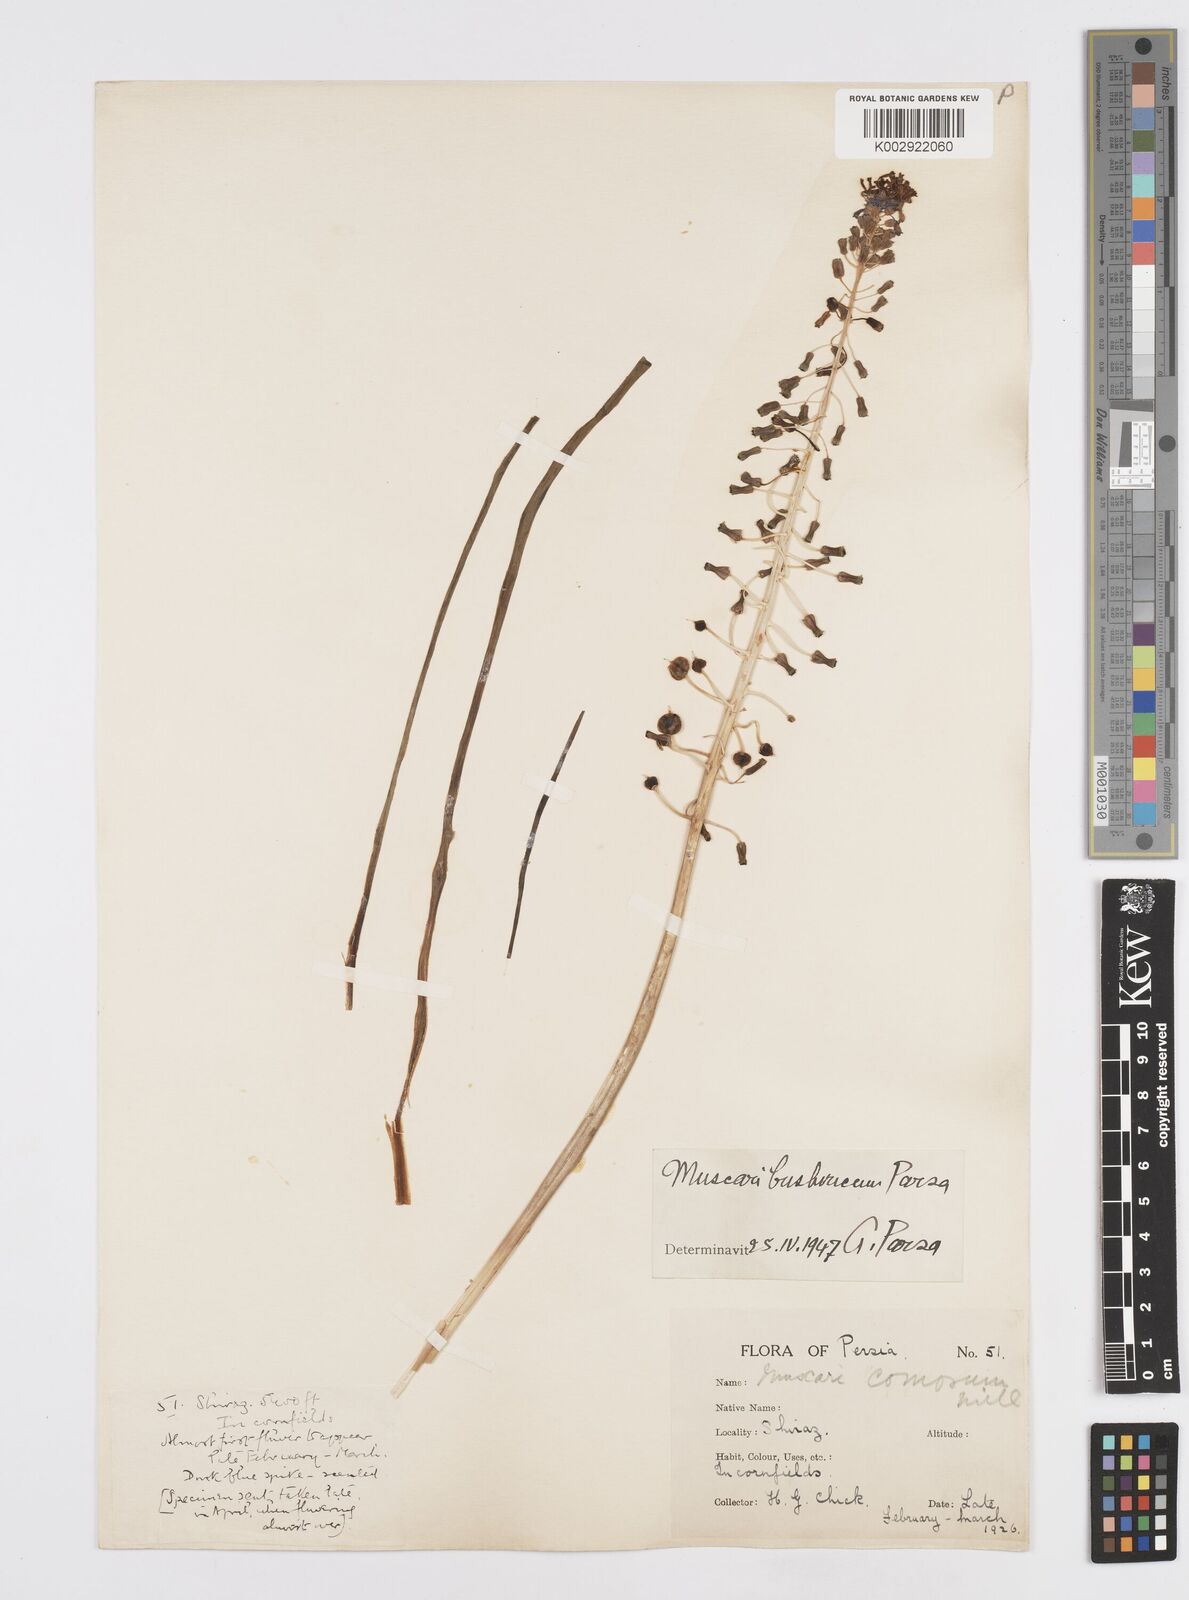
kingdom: Animalia
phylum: Mollusca
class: Cephalopoda
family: Neocomitidae
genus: Leopoldia
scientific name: Leopoldia
